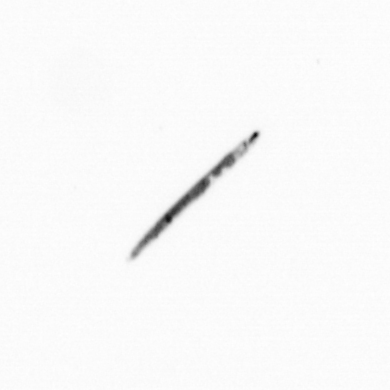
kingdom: Chromista
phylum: Ochrophyta
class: Bacillariophyceae
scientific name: Bacillariophyceae
